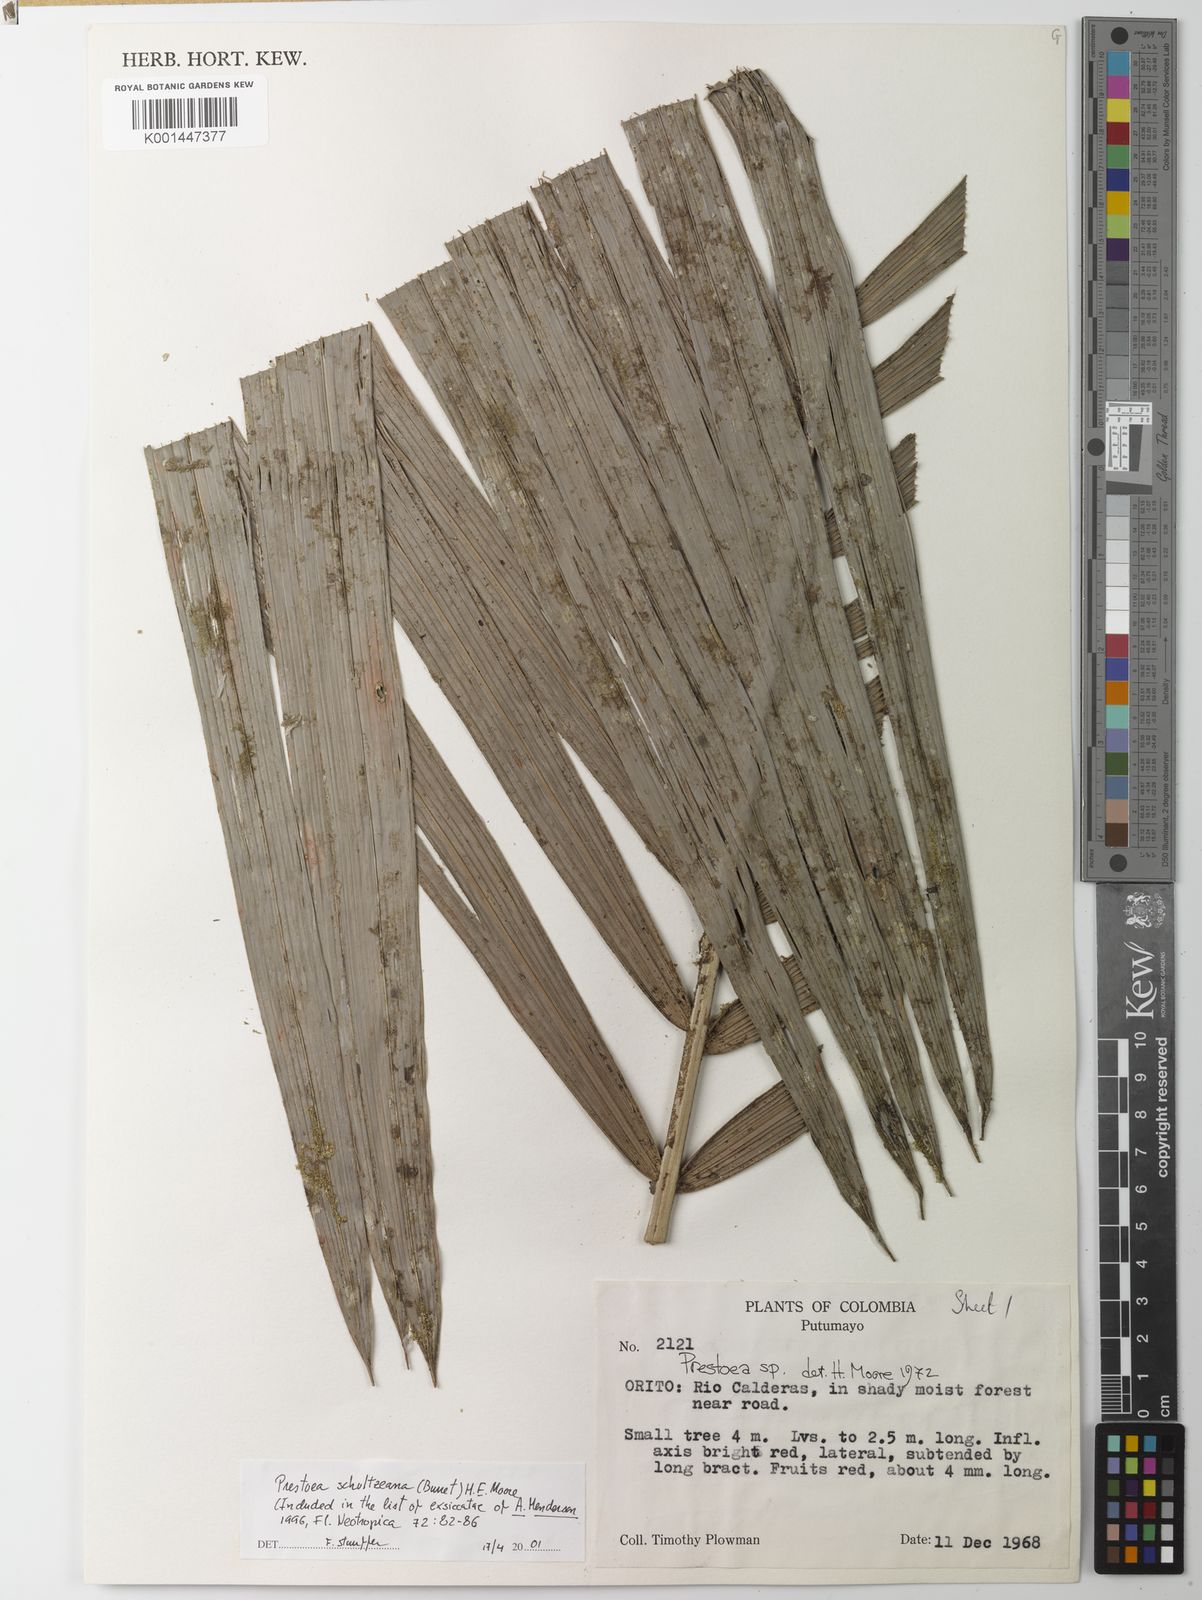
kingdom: Plantae
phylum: Tracheophyta
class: Liliopsida
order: Arecales
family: Arecaceae
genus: Prestoea
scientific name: Prestoea schultzeana
